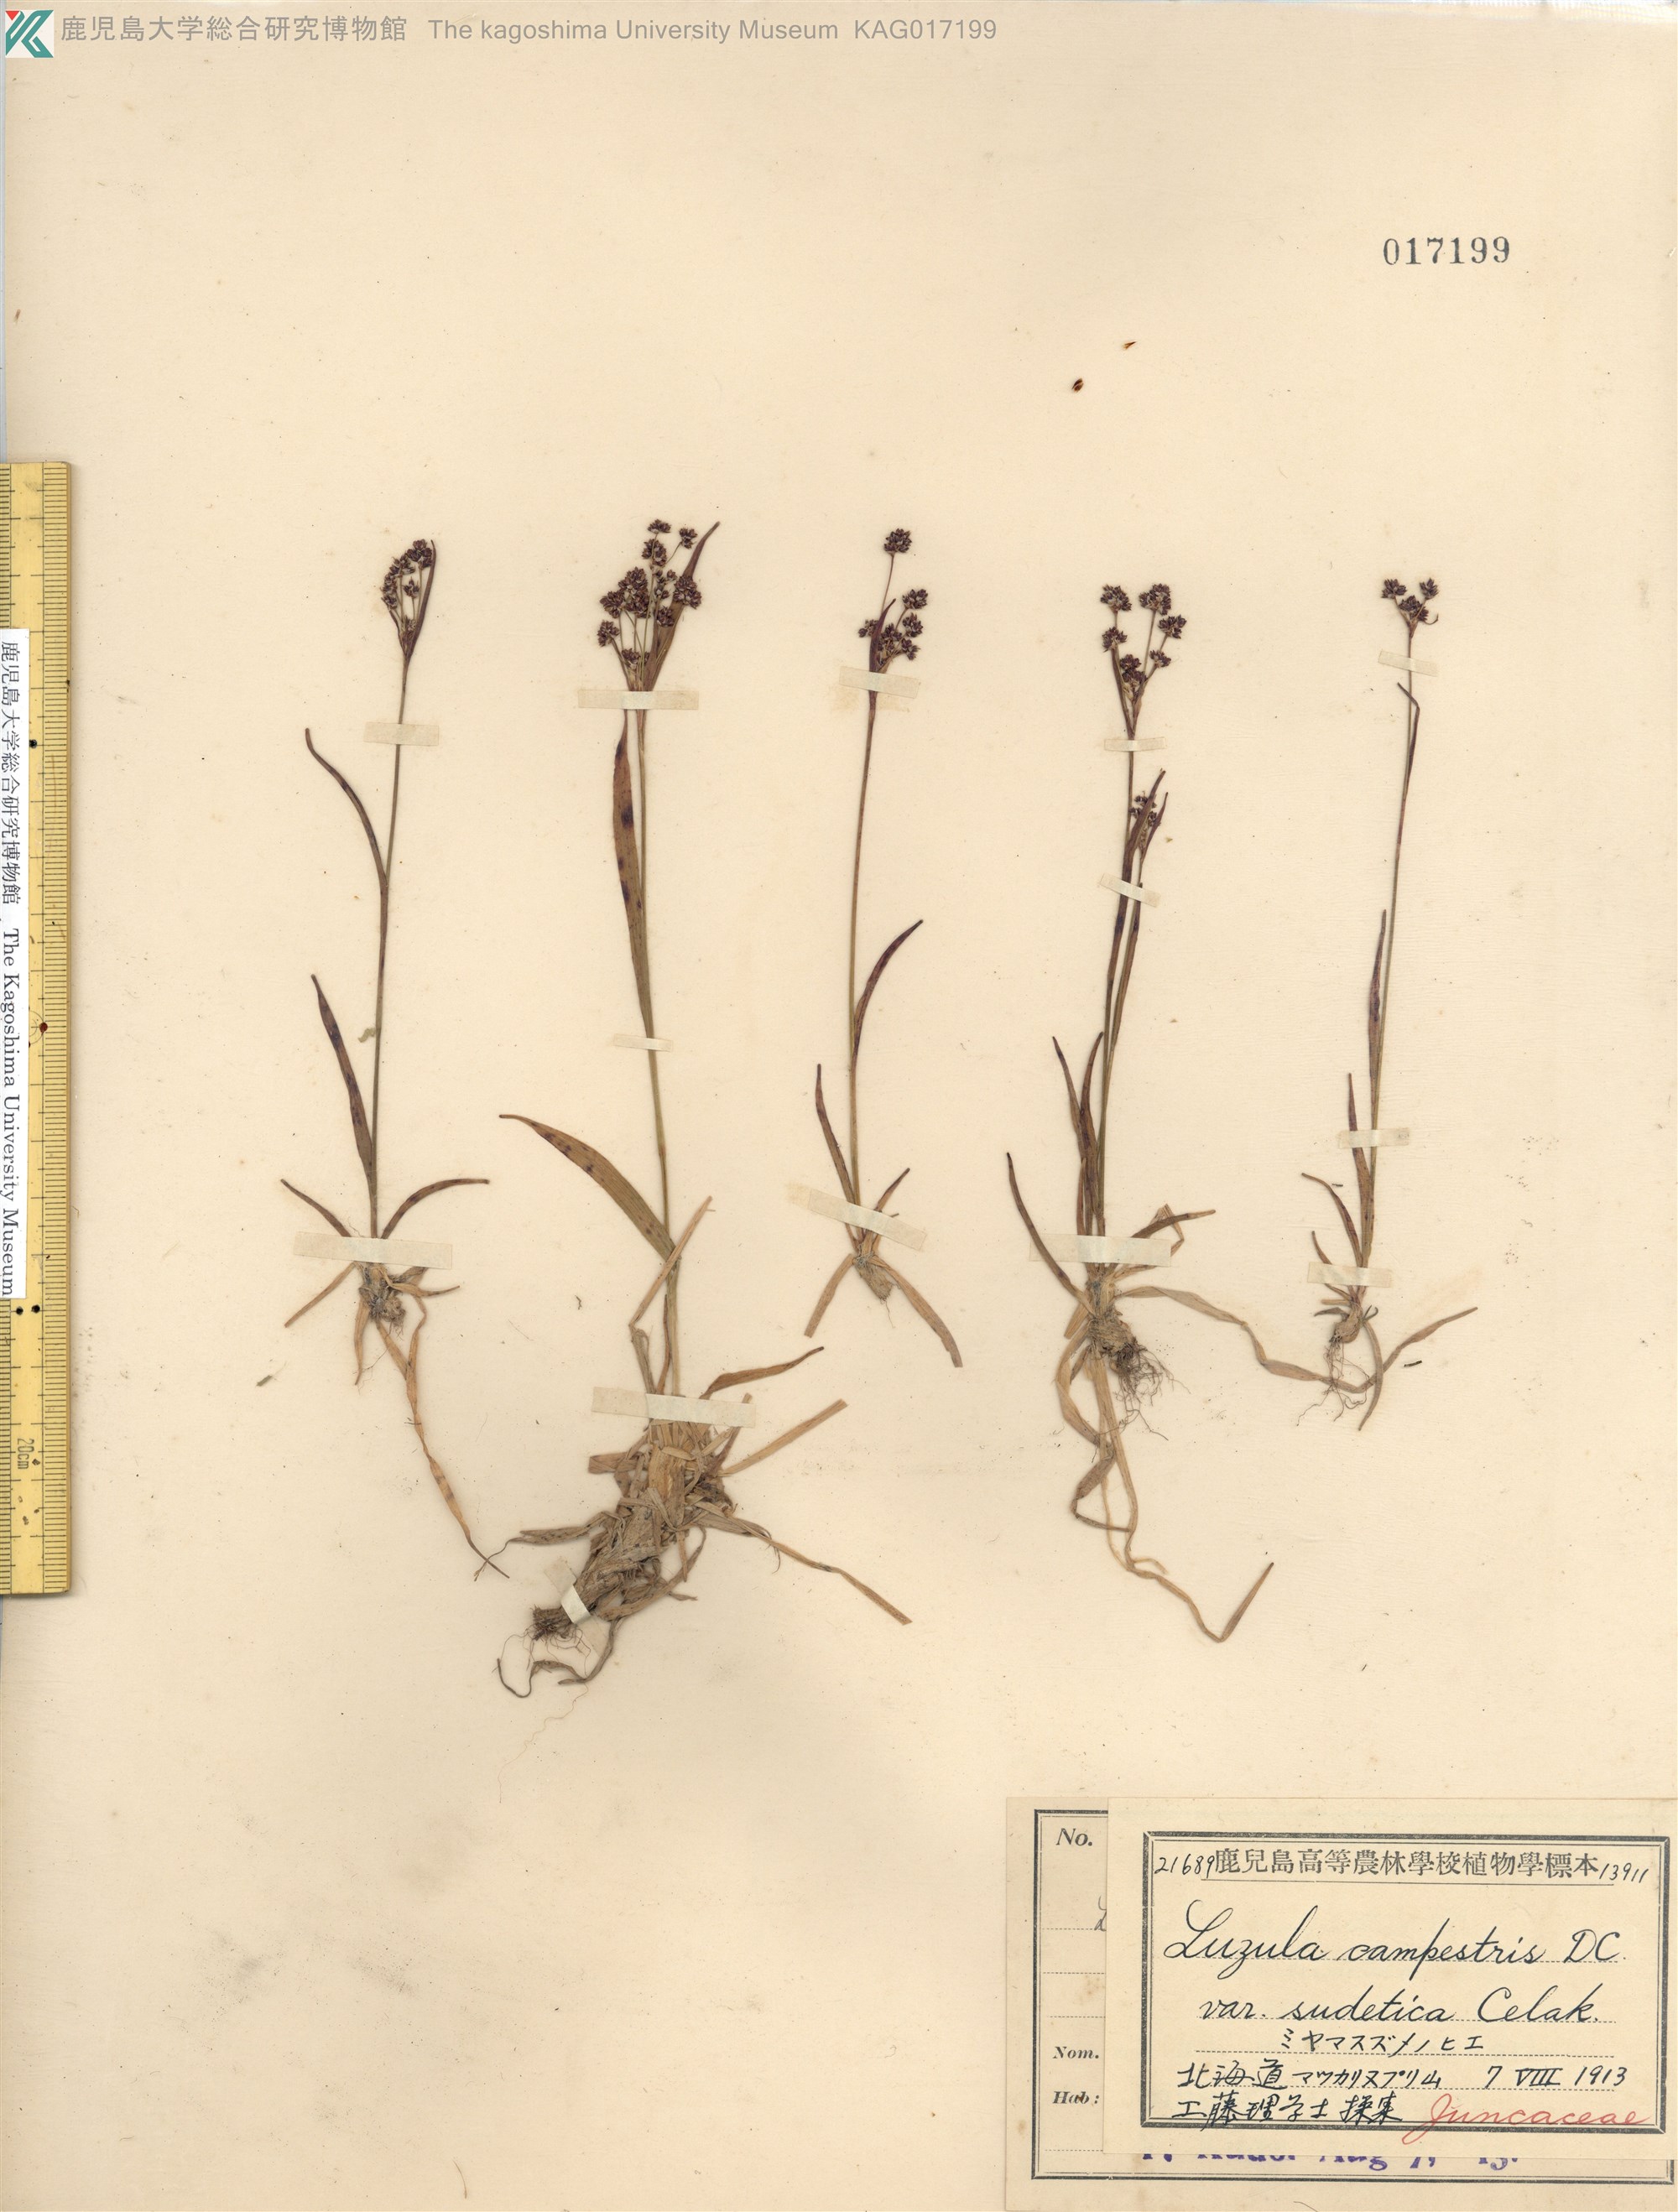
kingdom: Plantae
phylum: Tracheophyta
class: Liliopsida
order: Poales
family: Juncaceae
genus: Luzula
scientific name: Luzula multiflora
